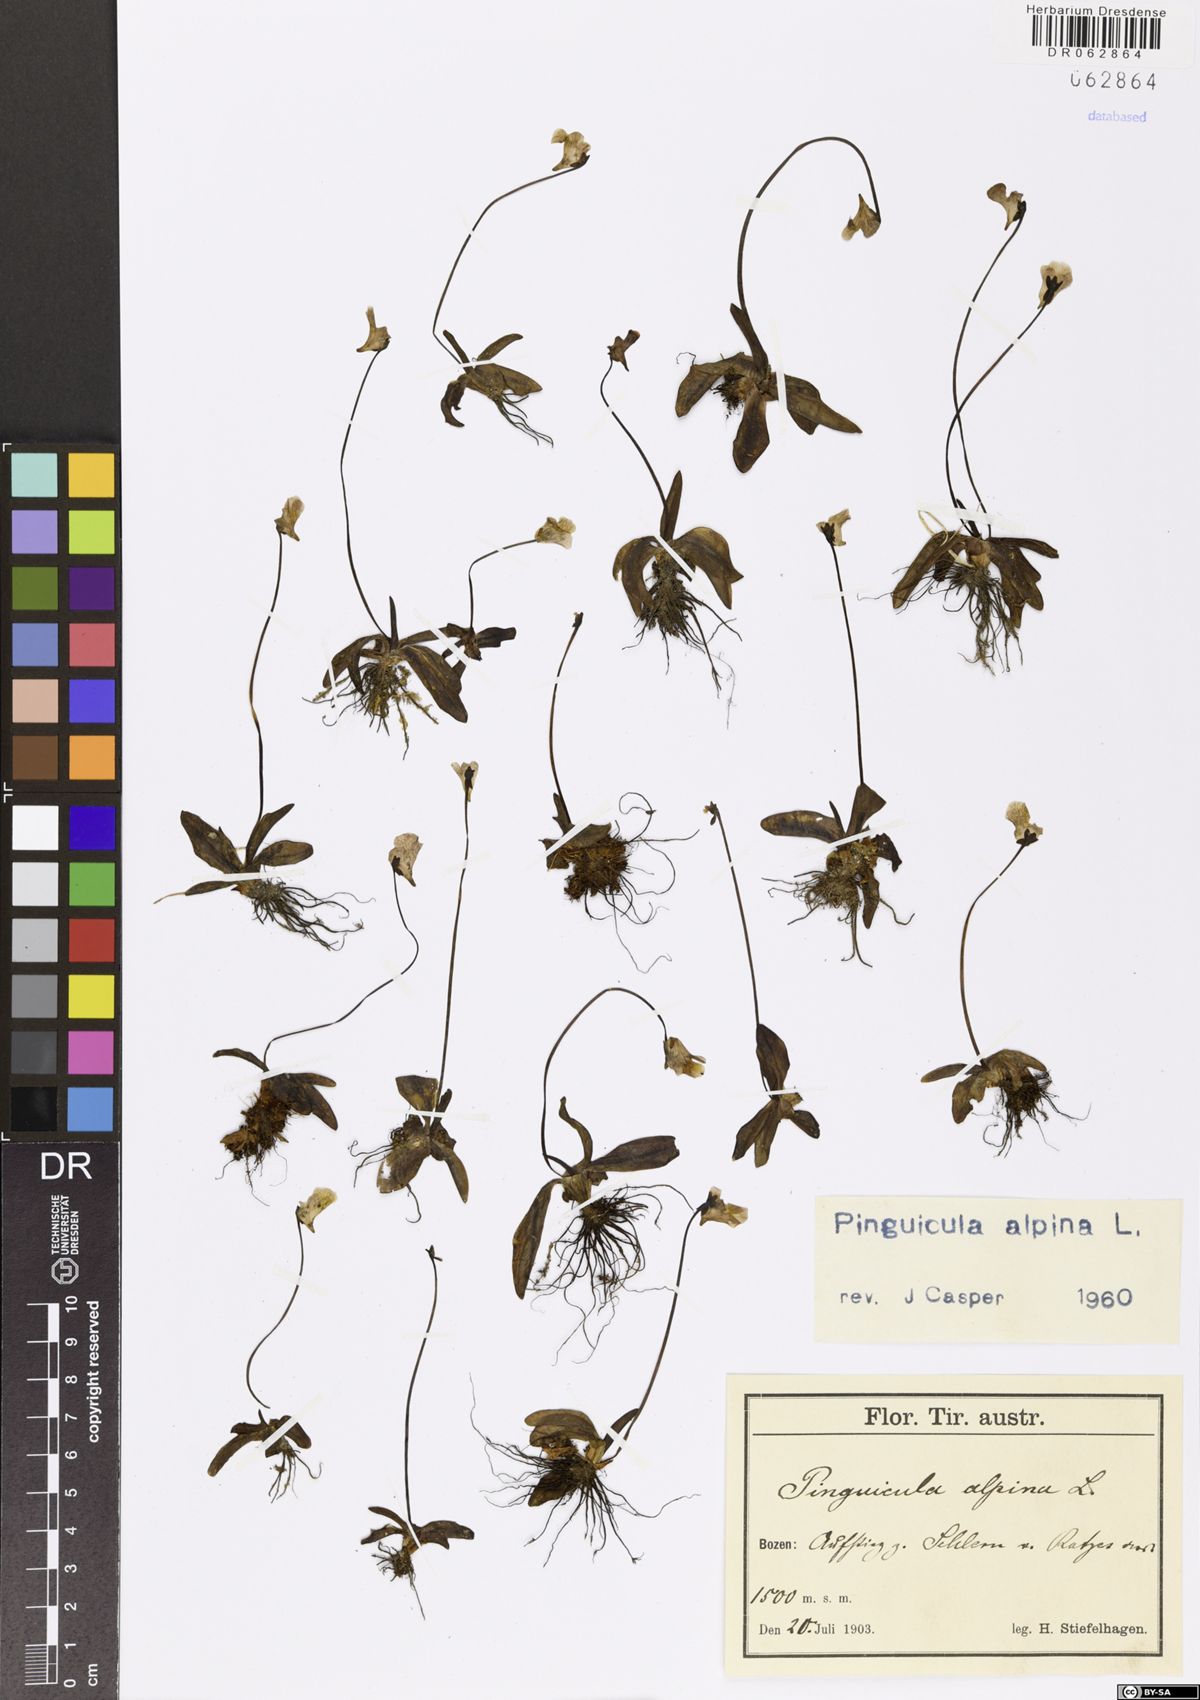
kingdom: Plantae
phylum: Tracheophyta
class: Magnoliopsida
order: Lamiales
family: Lentibulariaceae
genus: Pinguicula
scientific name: Pinguicula alpina
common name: Alpine butterwort
